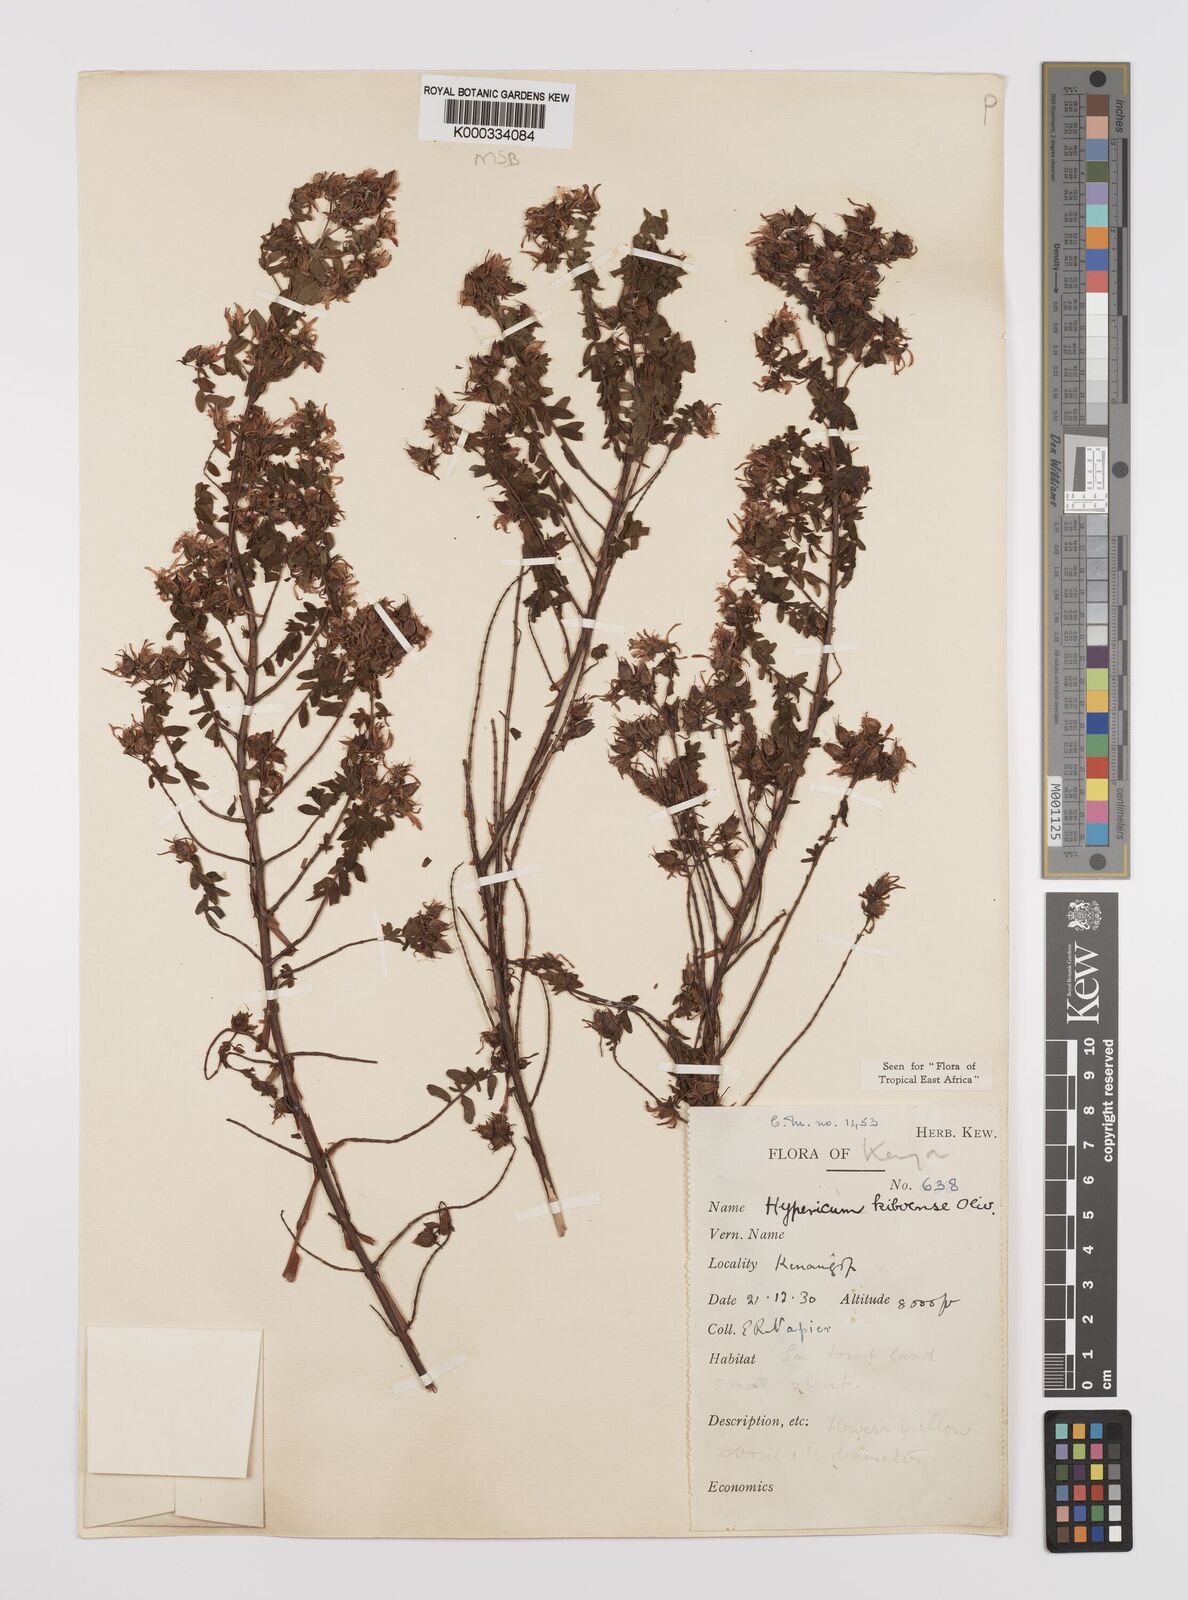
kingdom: Plantae
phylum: Tracheophyta
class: Magnoliopsida
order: Malpighiales
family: Hypericaceae
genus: Hypericum
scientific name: Hypericum kiboense
